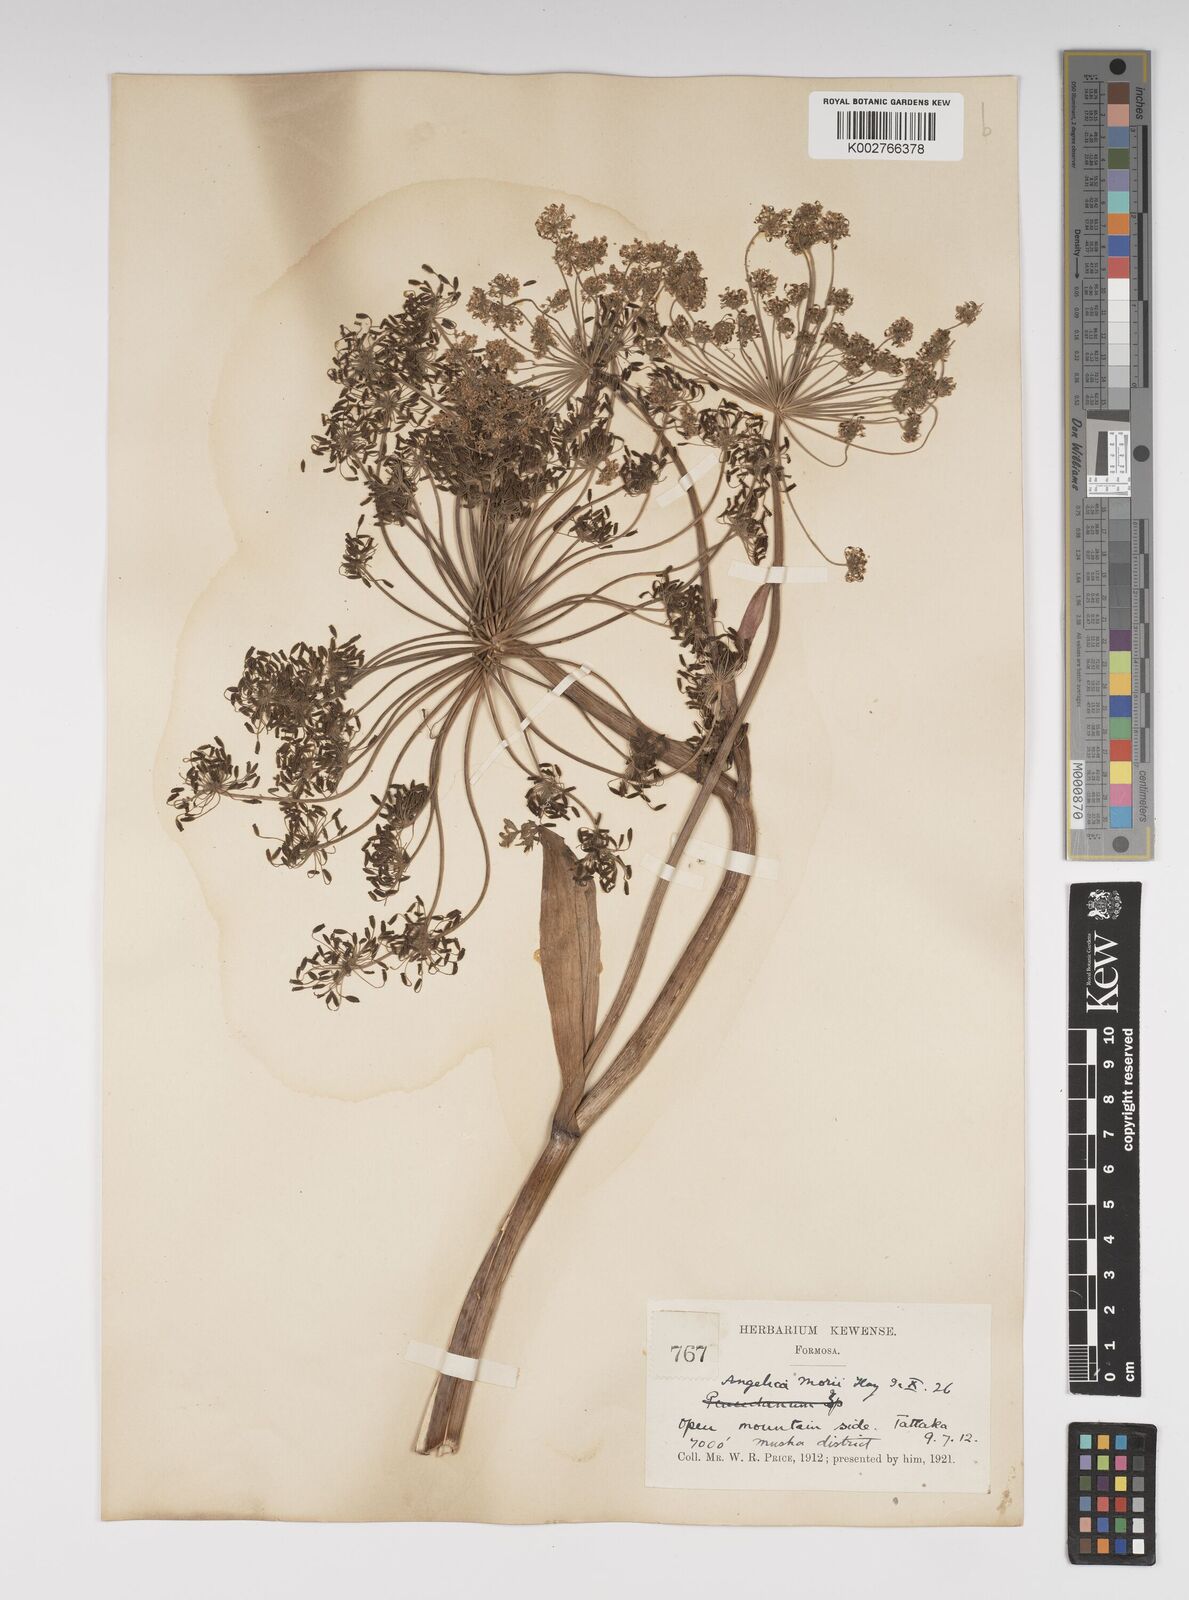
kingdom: Plantae
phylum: Tracheophyta
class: Magnoliopsida
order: Apiales
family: Apiaceae
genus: Angelica
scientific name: Angelica morii
